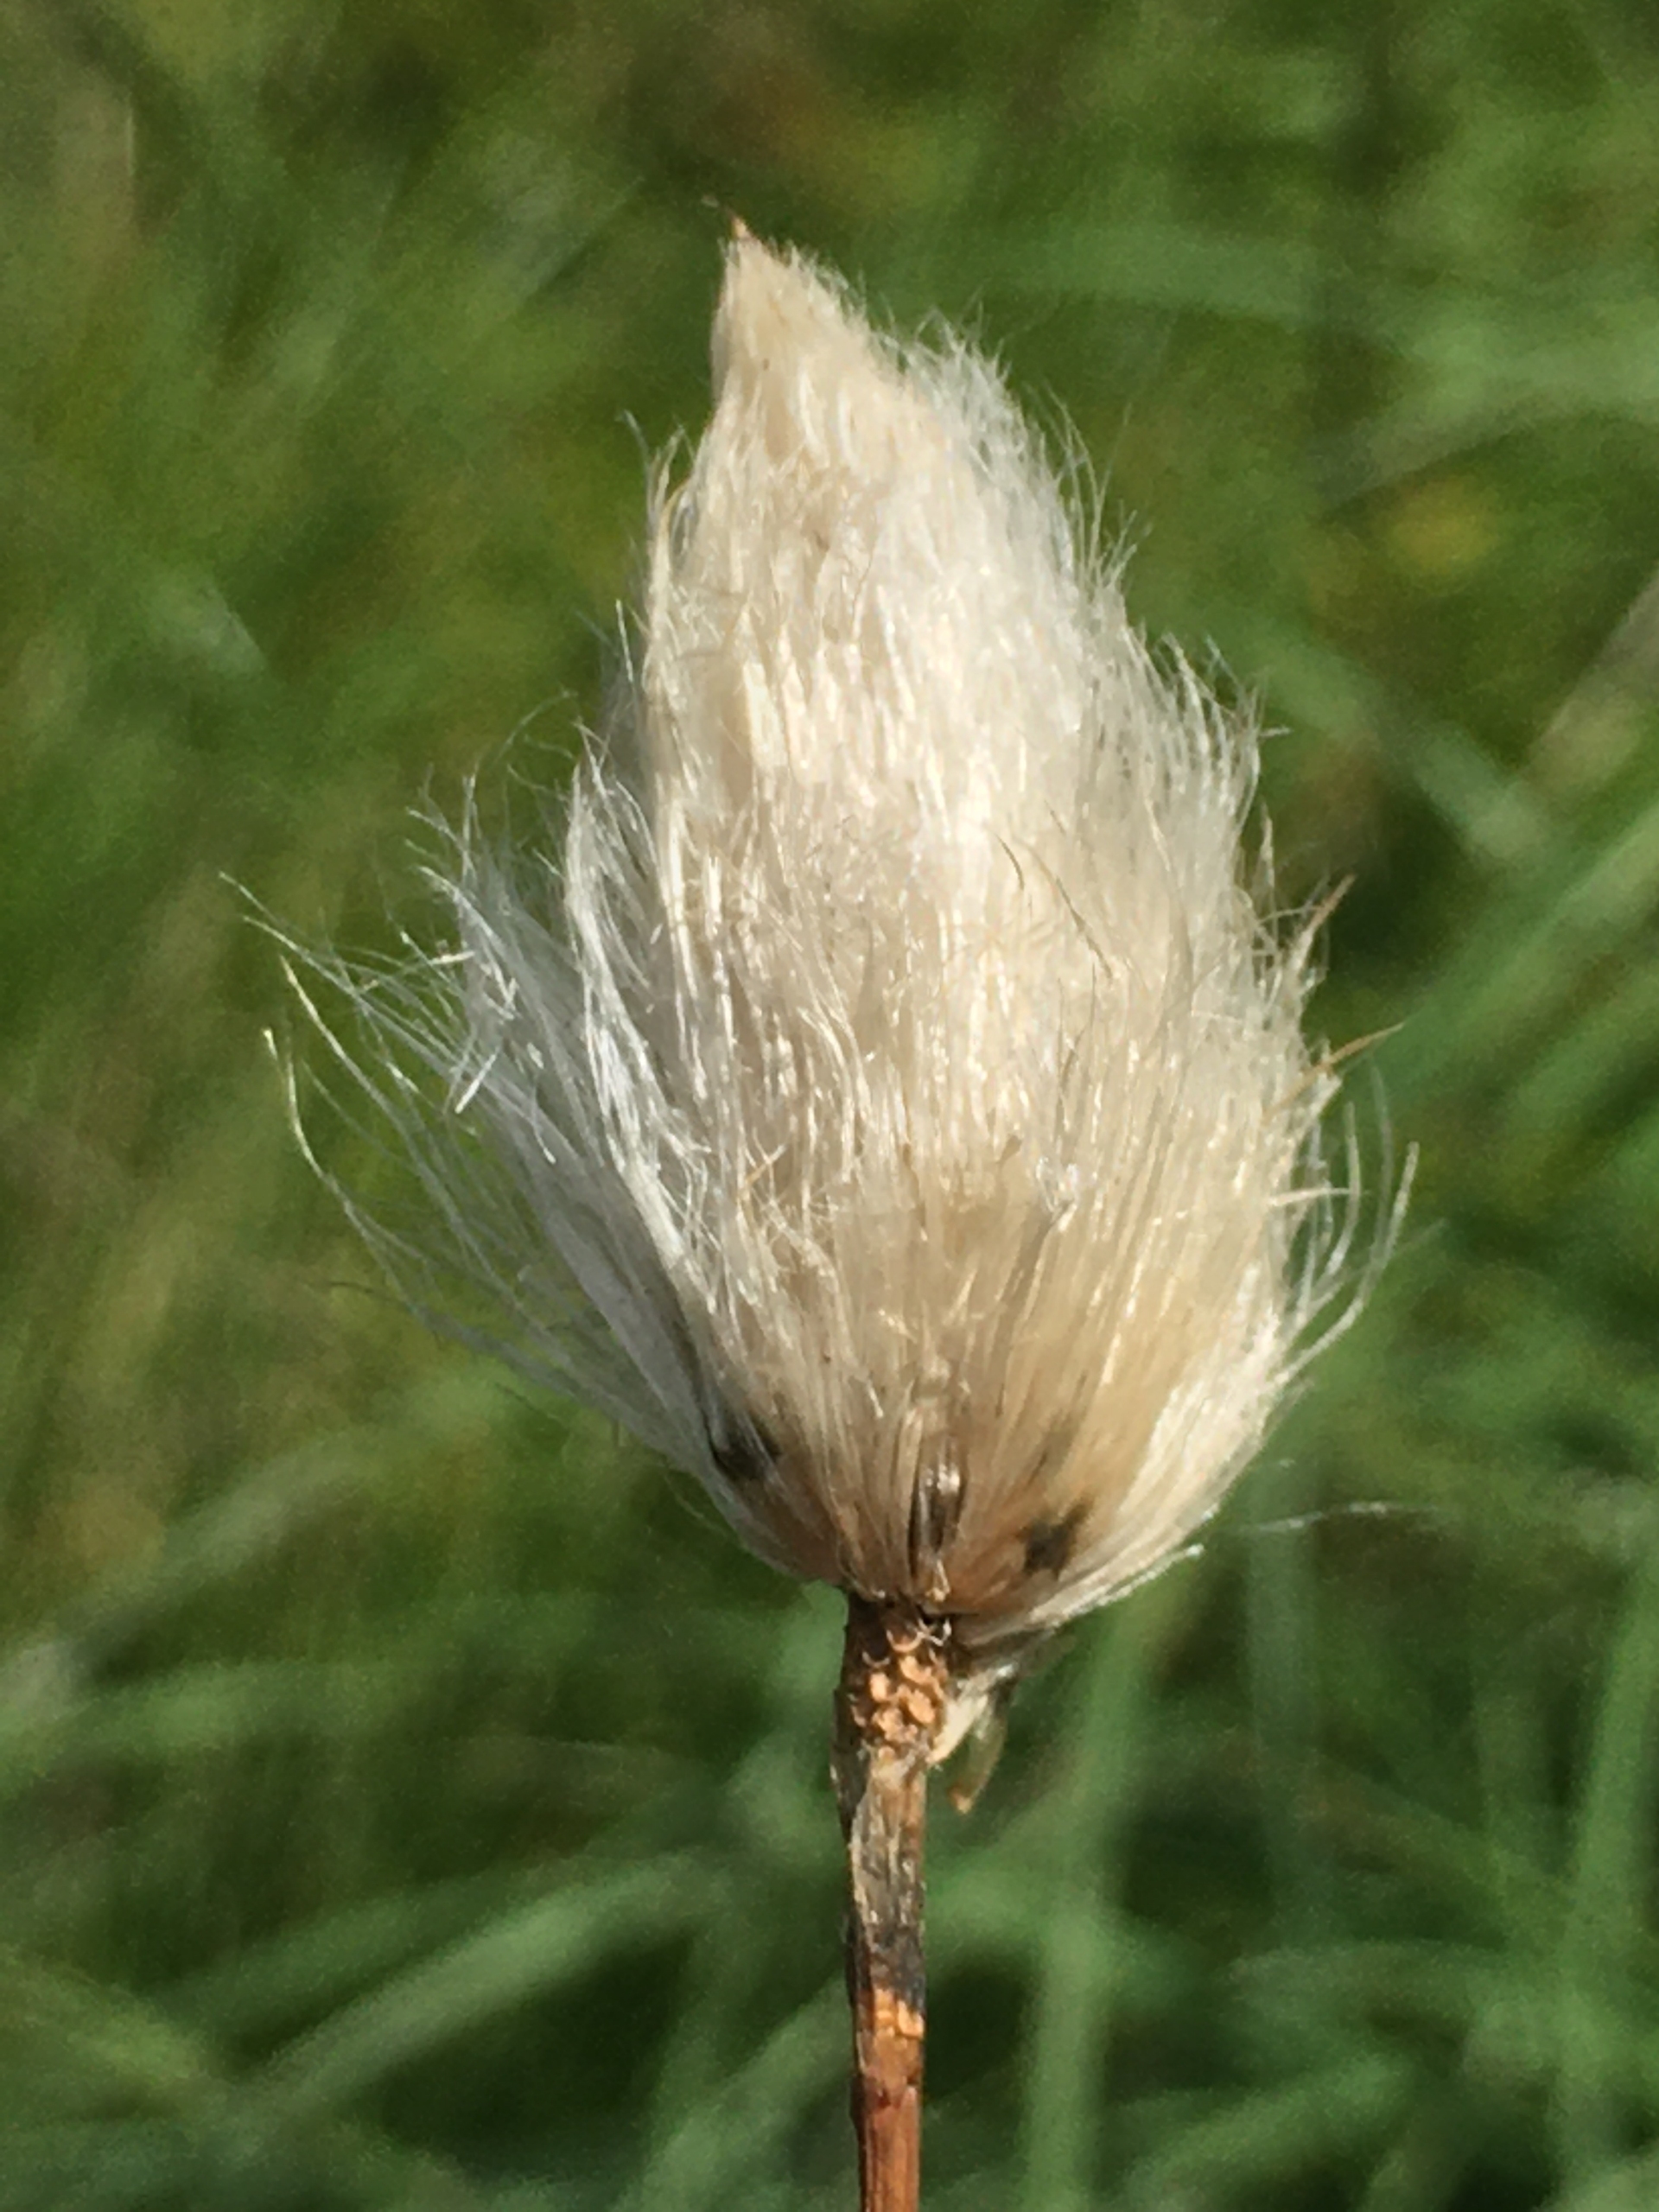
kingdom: Plantae
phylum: Tracheophyta
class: Liliopsida
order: Poales
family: Cyperaceae
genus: Eriophorum
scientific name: Eriophorum vaginatum
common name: Tue-kæruld
